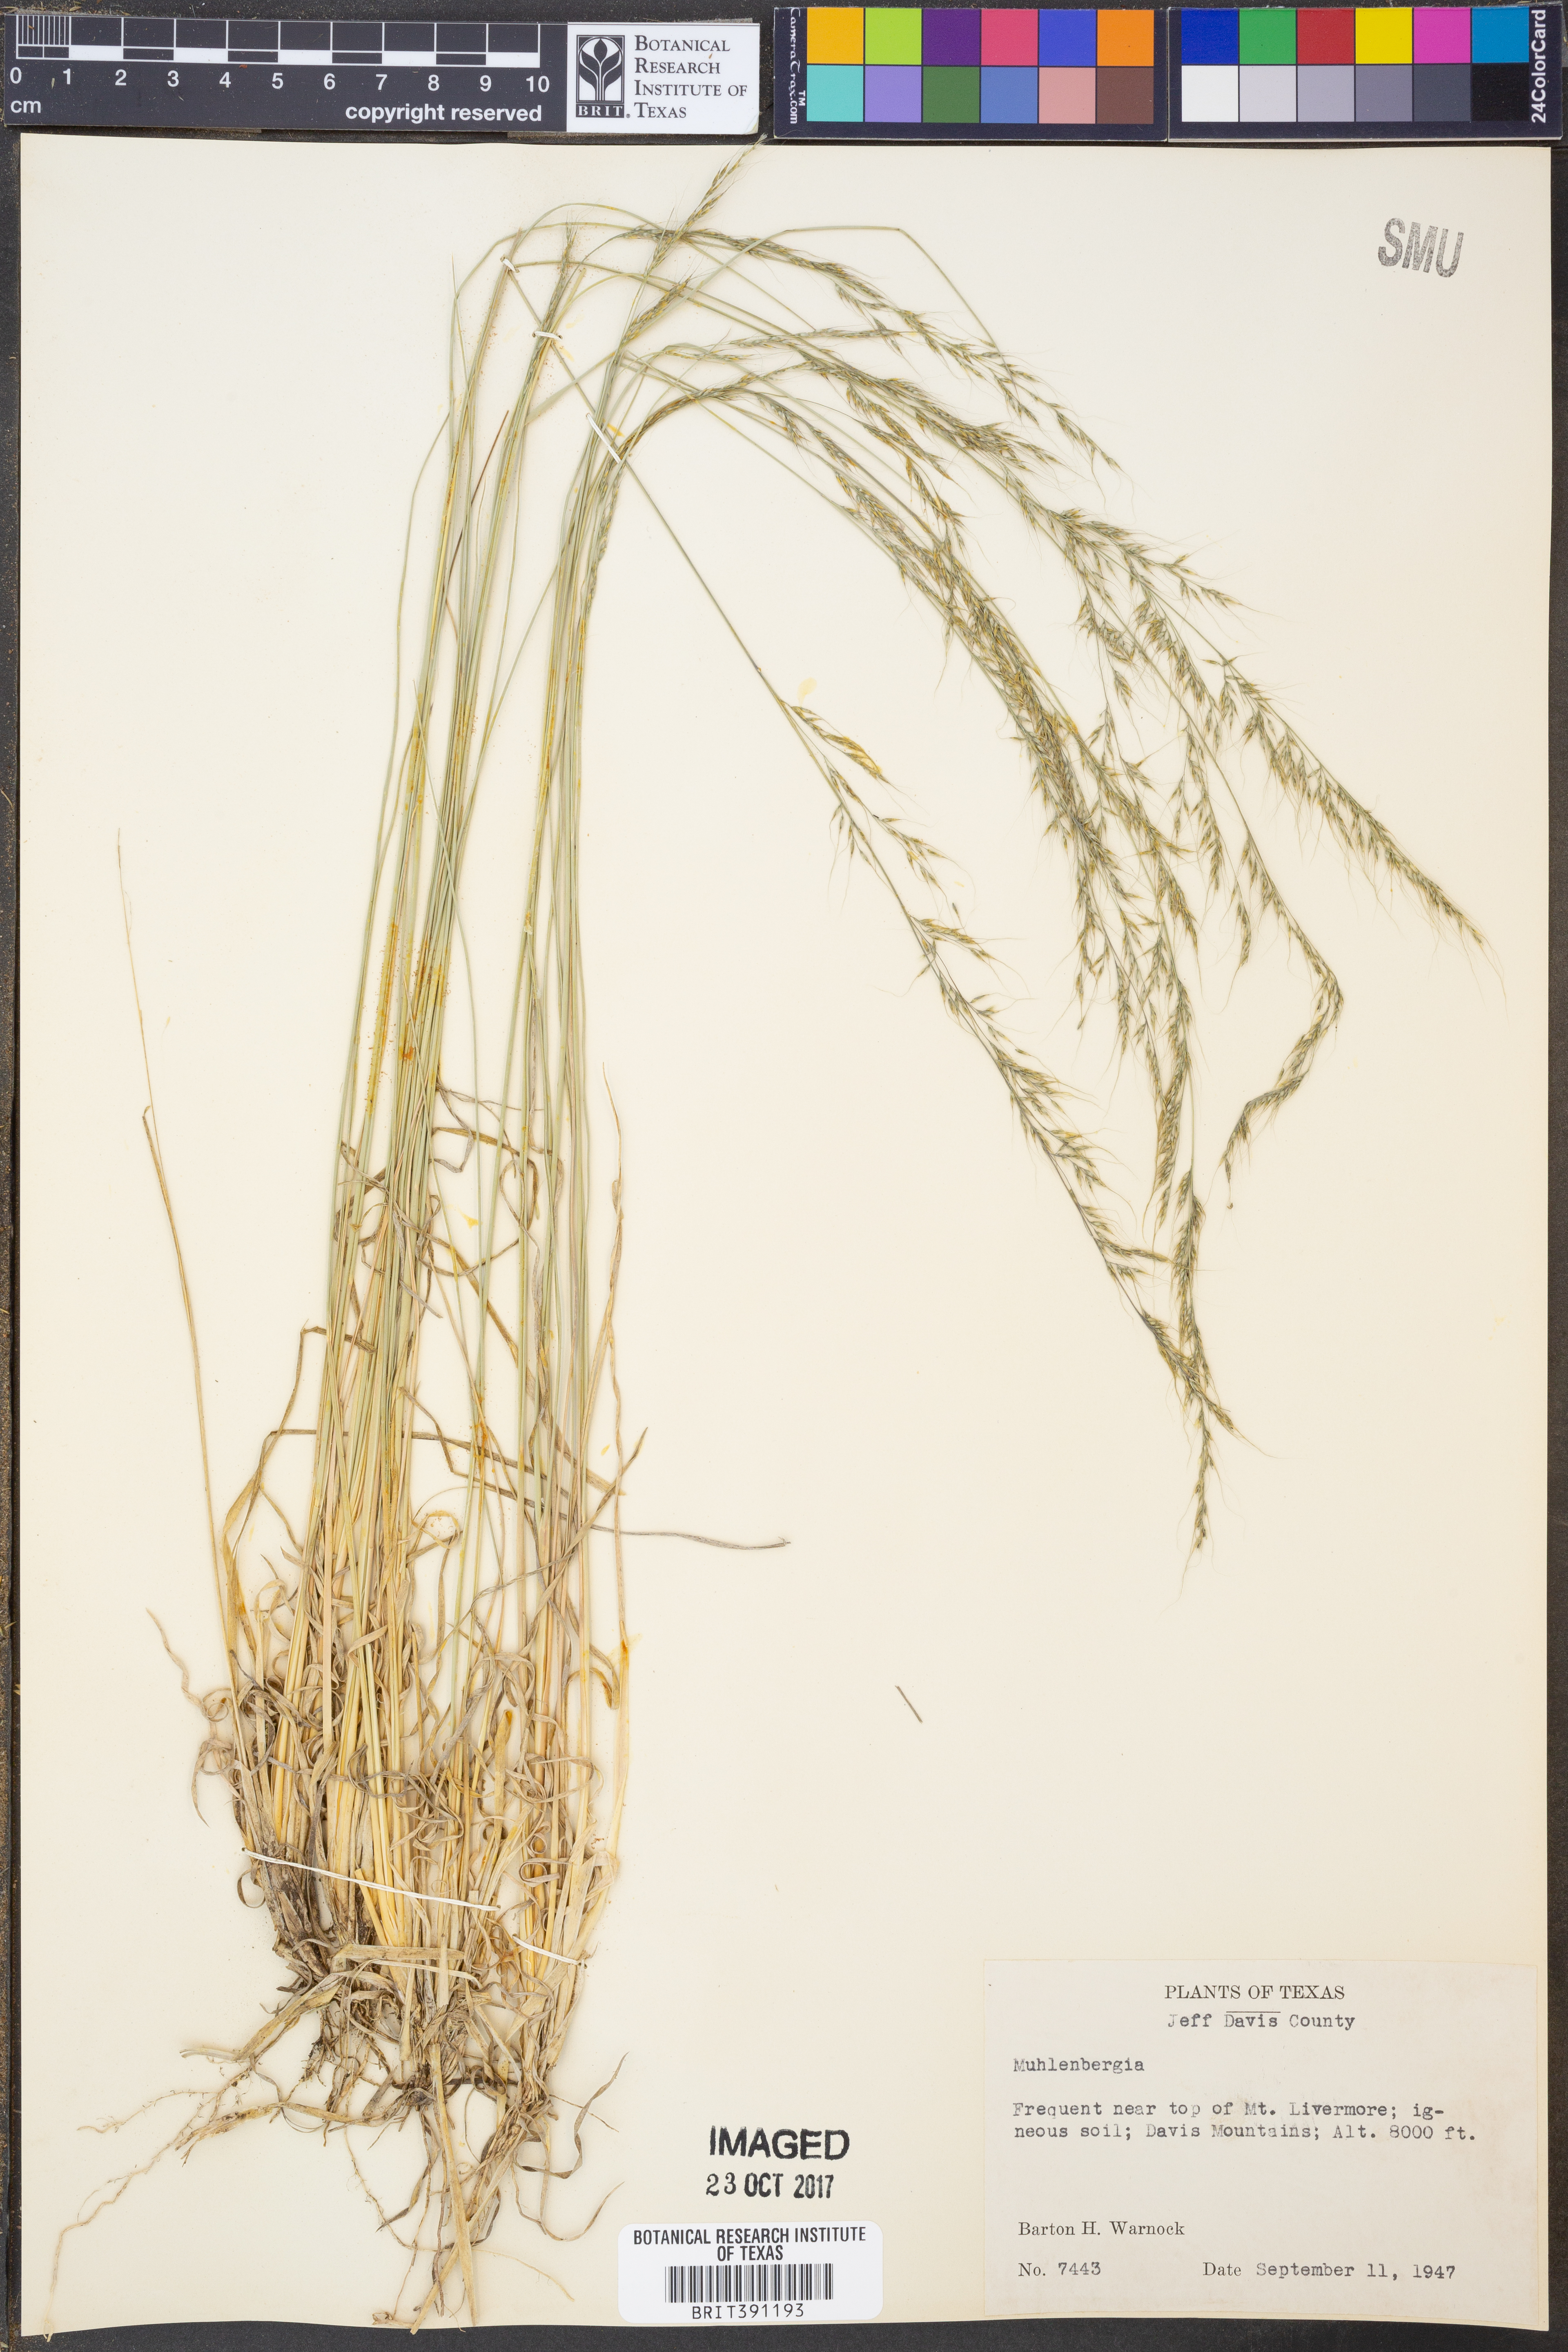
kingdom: Plantae
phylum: Tracheophyta
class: Liliopsida
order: Poales
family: Poaceae
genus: Muhlenbergia
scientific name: Muhlenbergia
